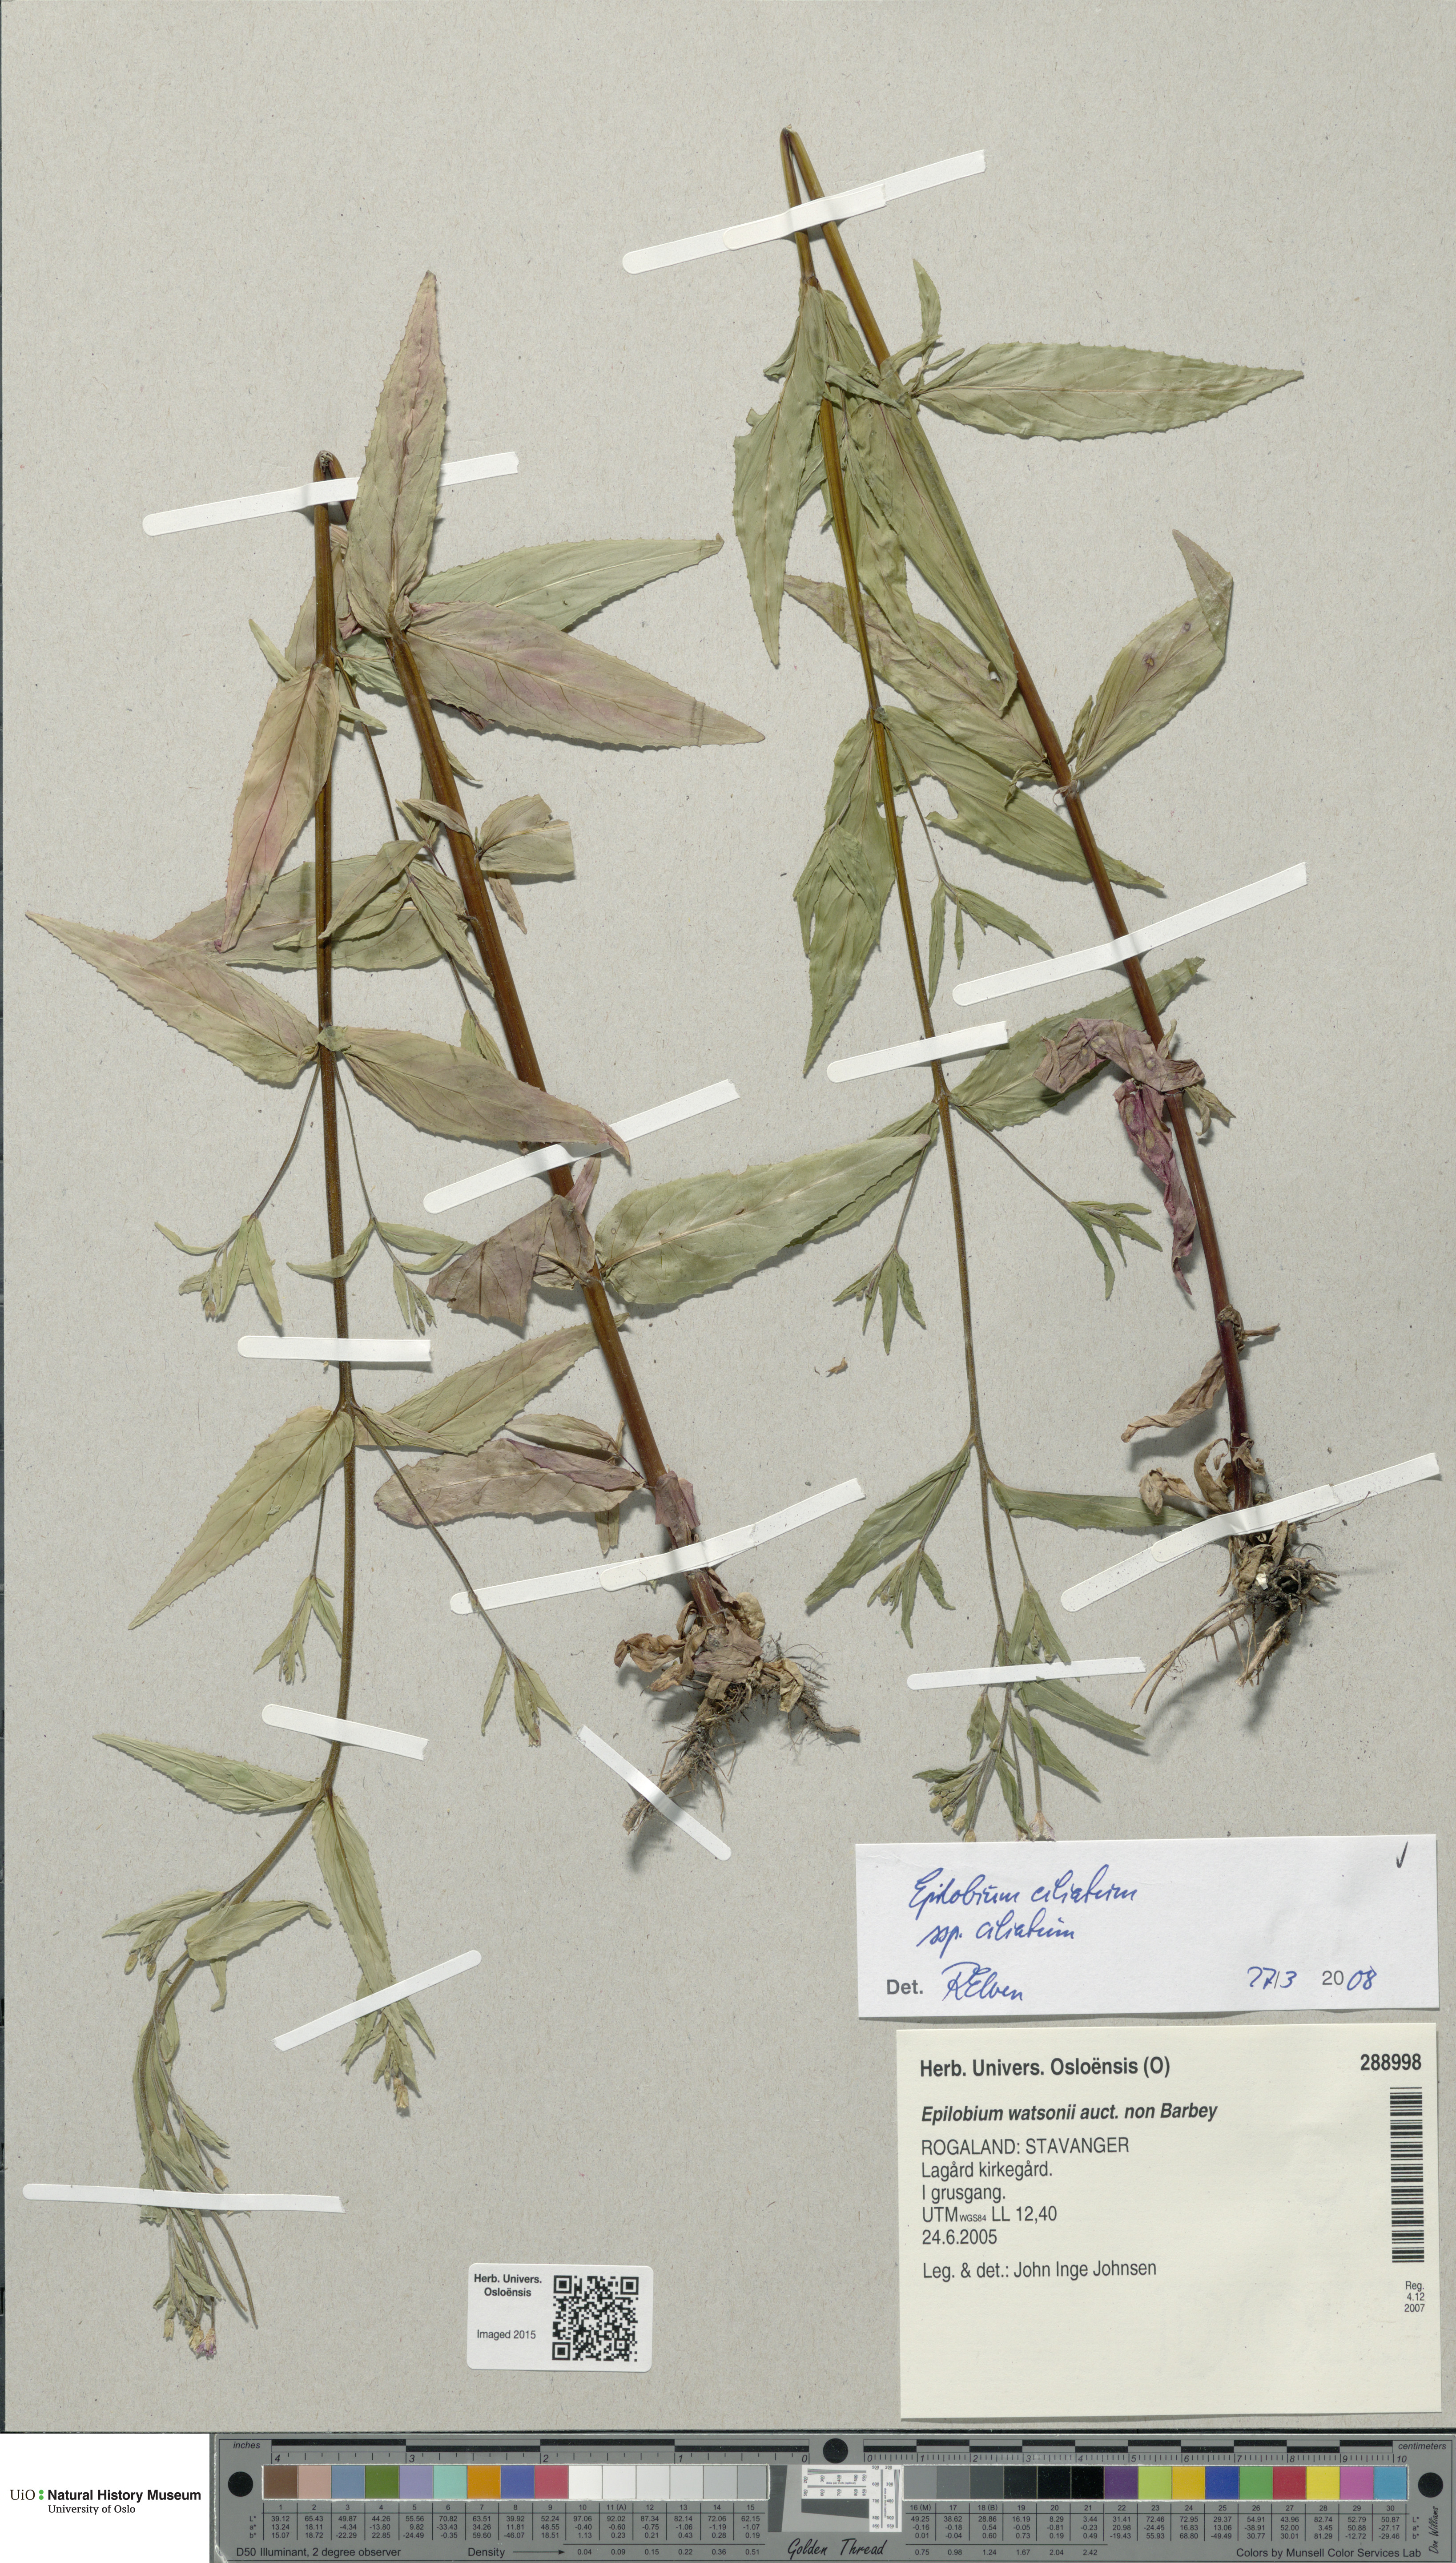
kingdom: Plantae
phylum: Tracheophyta
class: Magnoliopsida
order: Myrtales
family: Onagraceae
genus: Epilobium
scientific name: Epilobium ciliatum
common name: American willowherb
